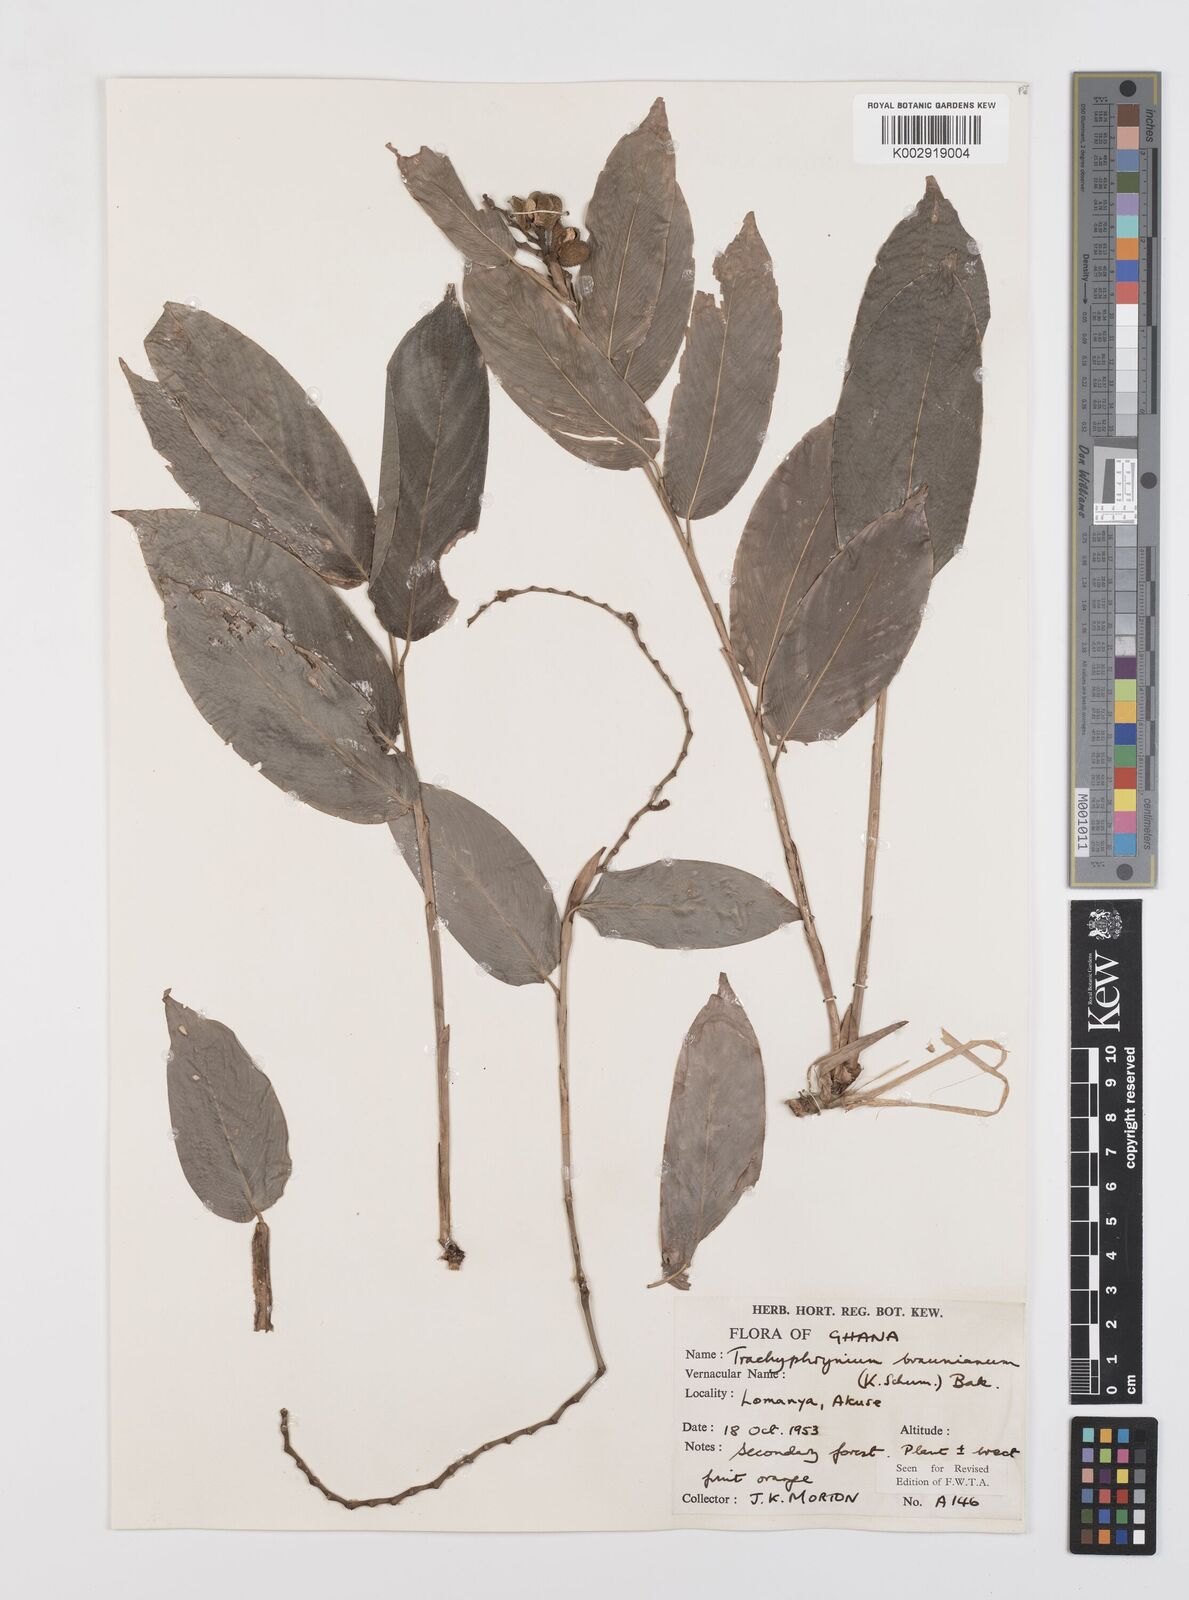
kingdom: Plantae
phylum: Tracheophyta
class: Liliopsida
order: Zingiberales
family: Marantaceae
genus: Trachyphrynium
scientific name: Trachyphrynium braunianum
